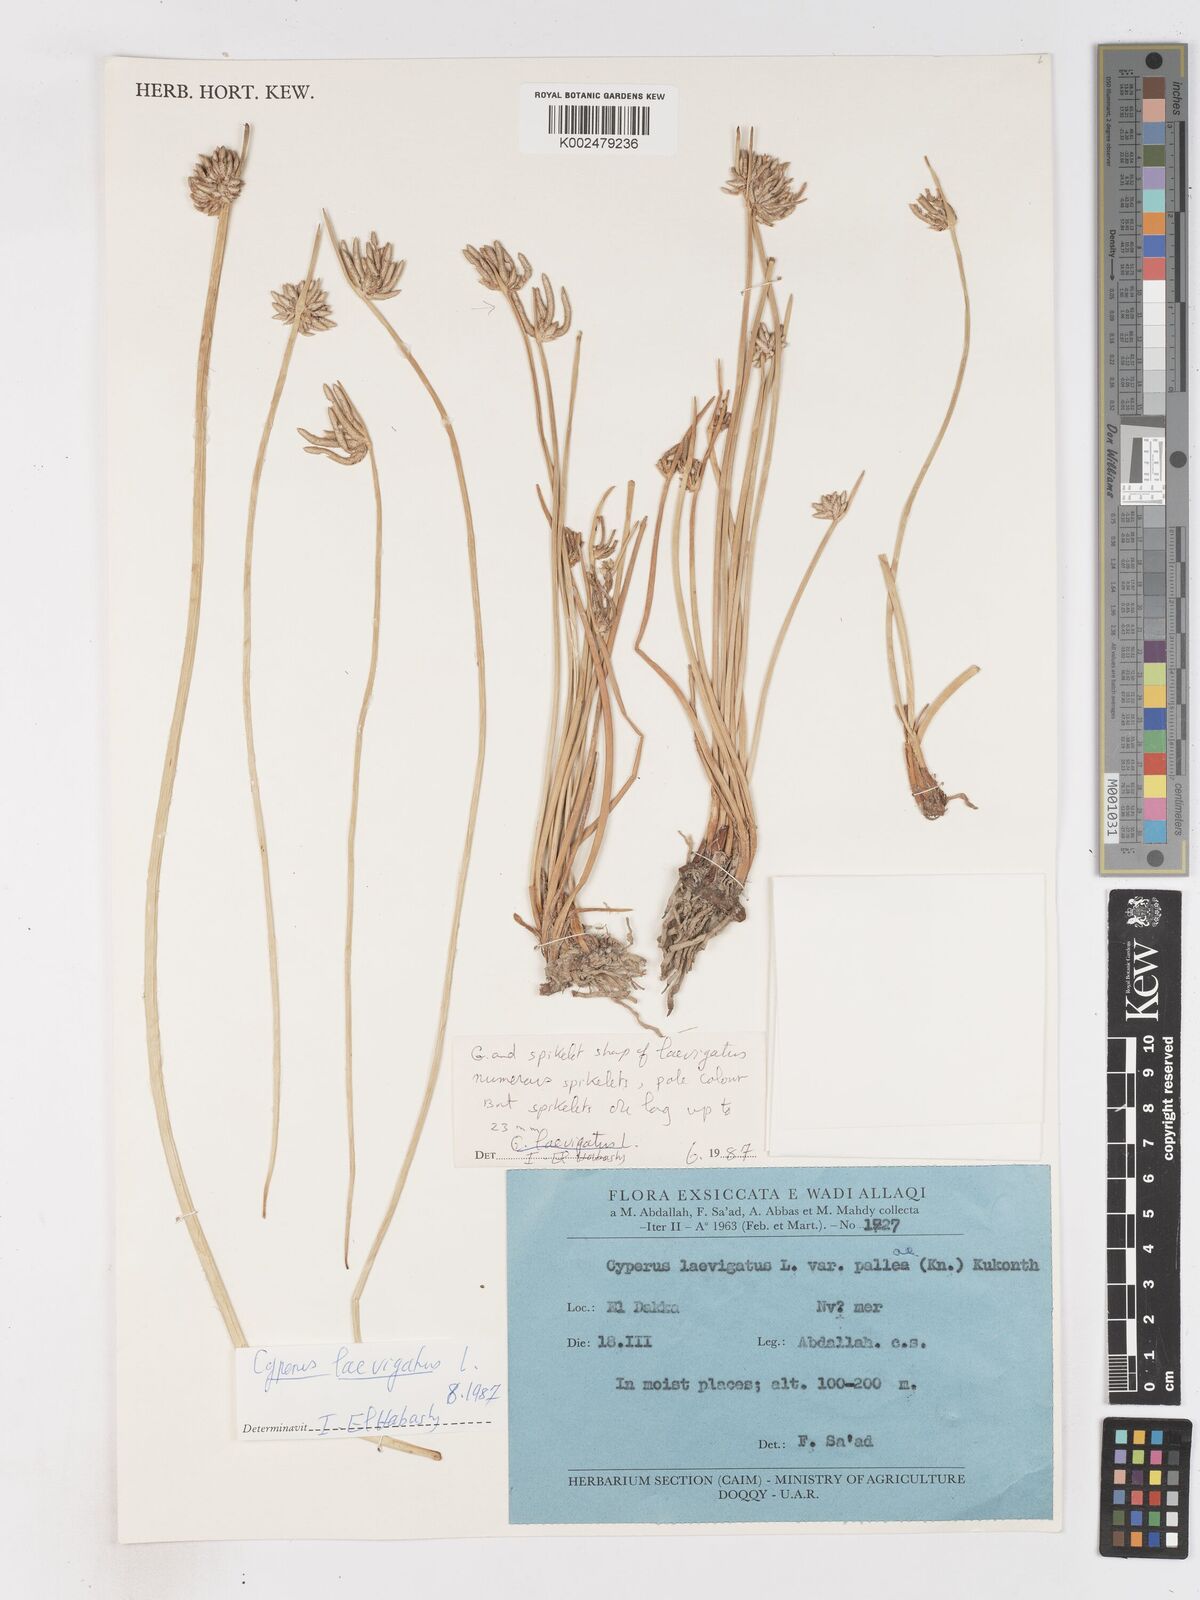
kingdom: Plantae
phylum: Tracheophyta
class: Liliopsida
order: Poales
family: Cyperaceae
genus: Cyperus
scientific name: Cyperus laevigatus
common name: Smooth flat sedge
